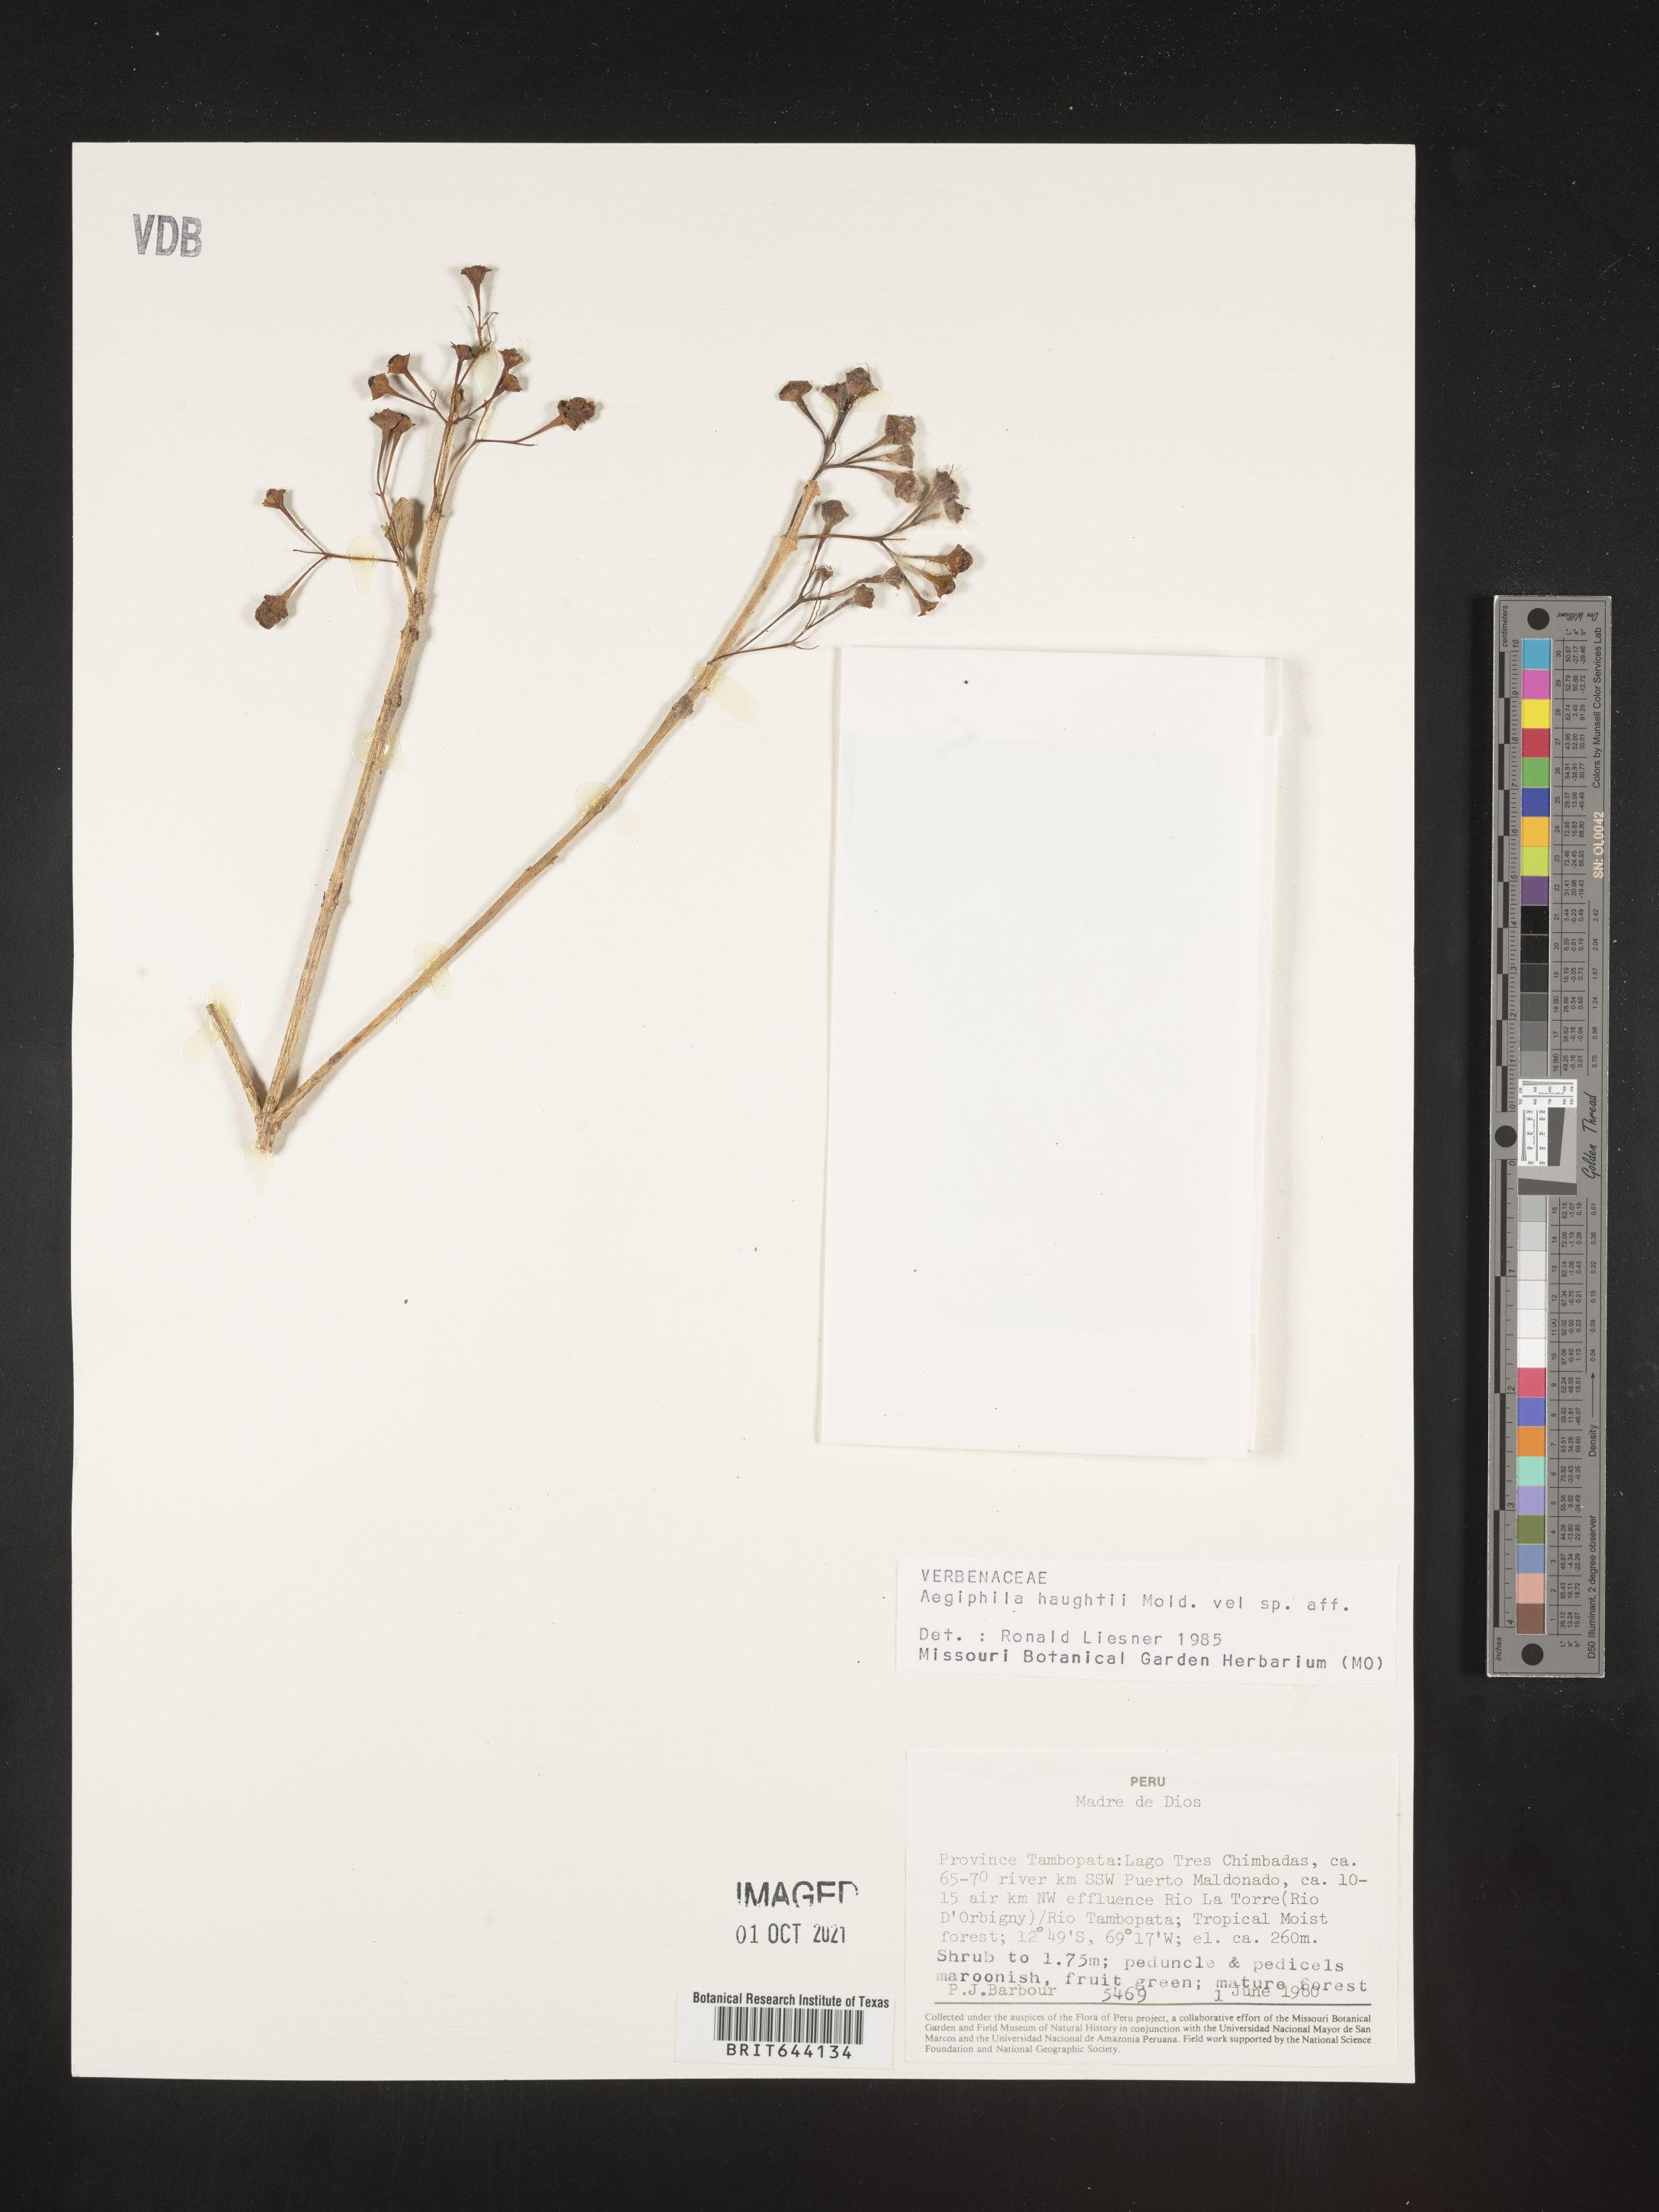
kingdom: Plantae
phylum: Tracheophyta
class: Magnoliopsida
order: Lamiales
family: Lamiaceae
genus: Aegiphila
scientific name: Aegiphila
